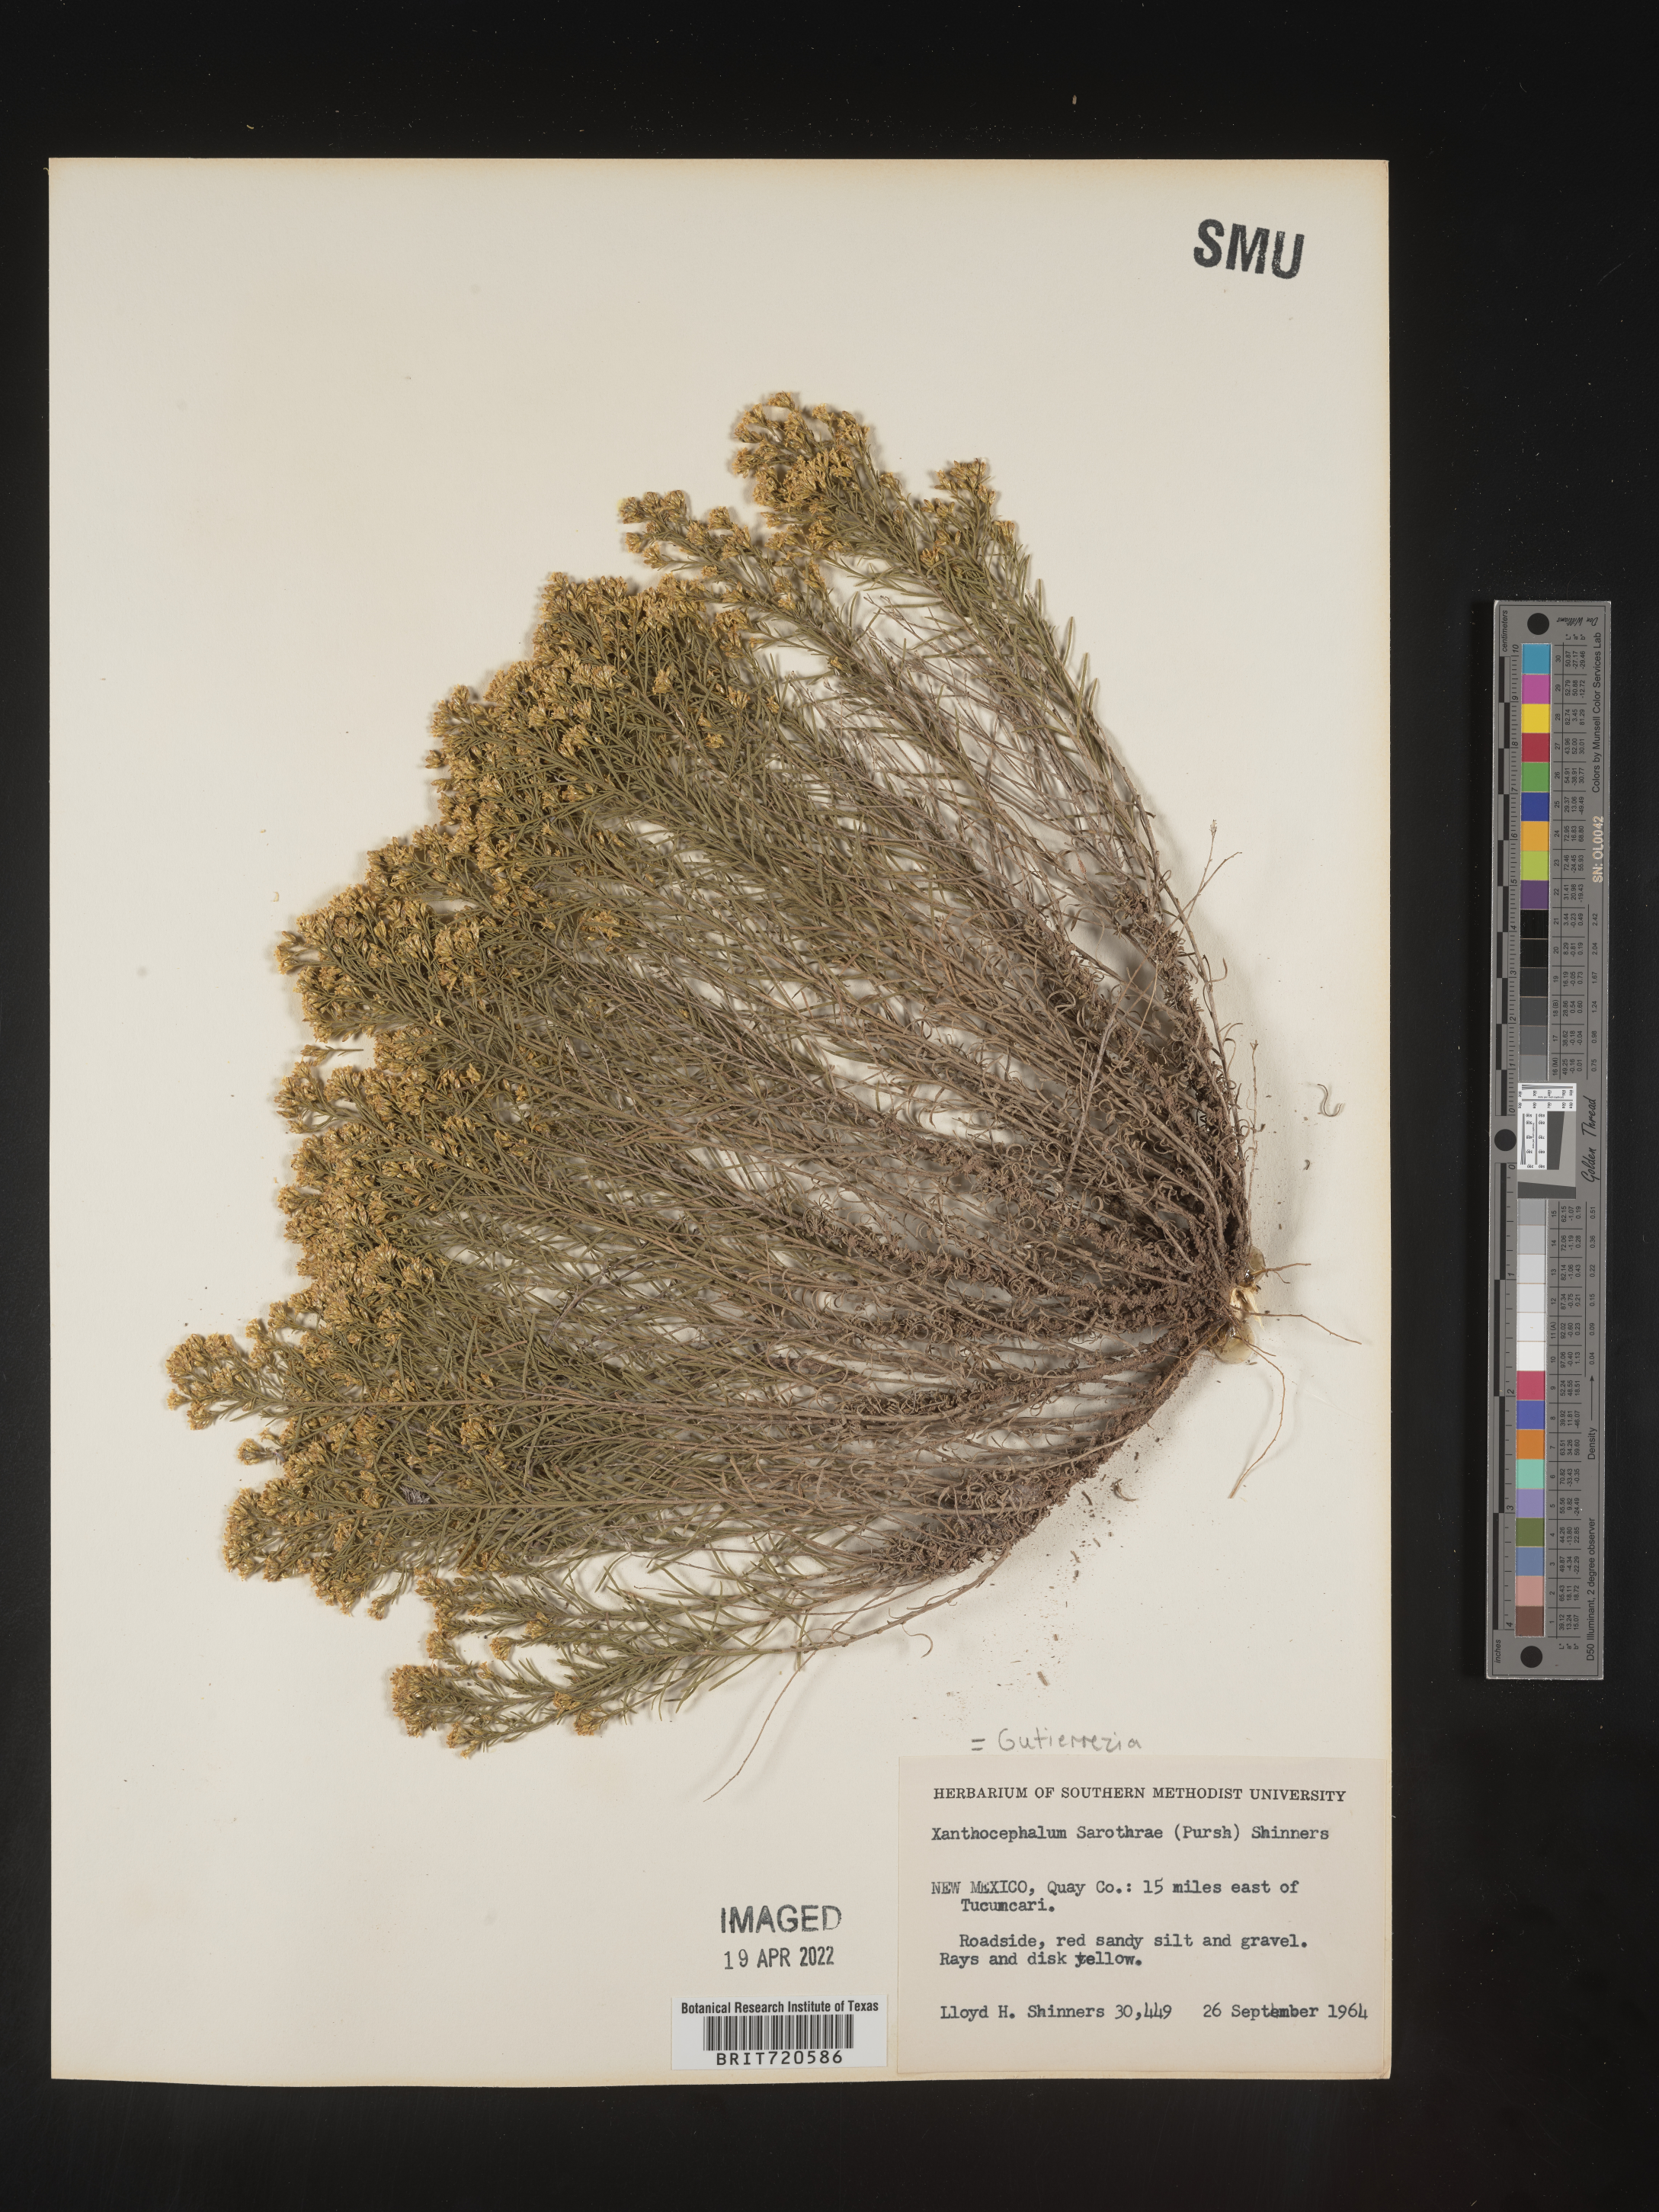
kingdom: Plantae
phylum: Tracheophyta
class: Magnoliopsida
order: Asterales
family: Asteraceae
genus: Gutierrezia
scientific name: Gutierrezia sarothrae
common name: Broom snakeweed
